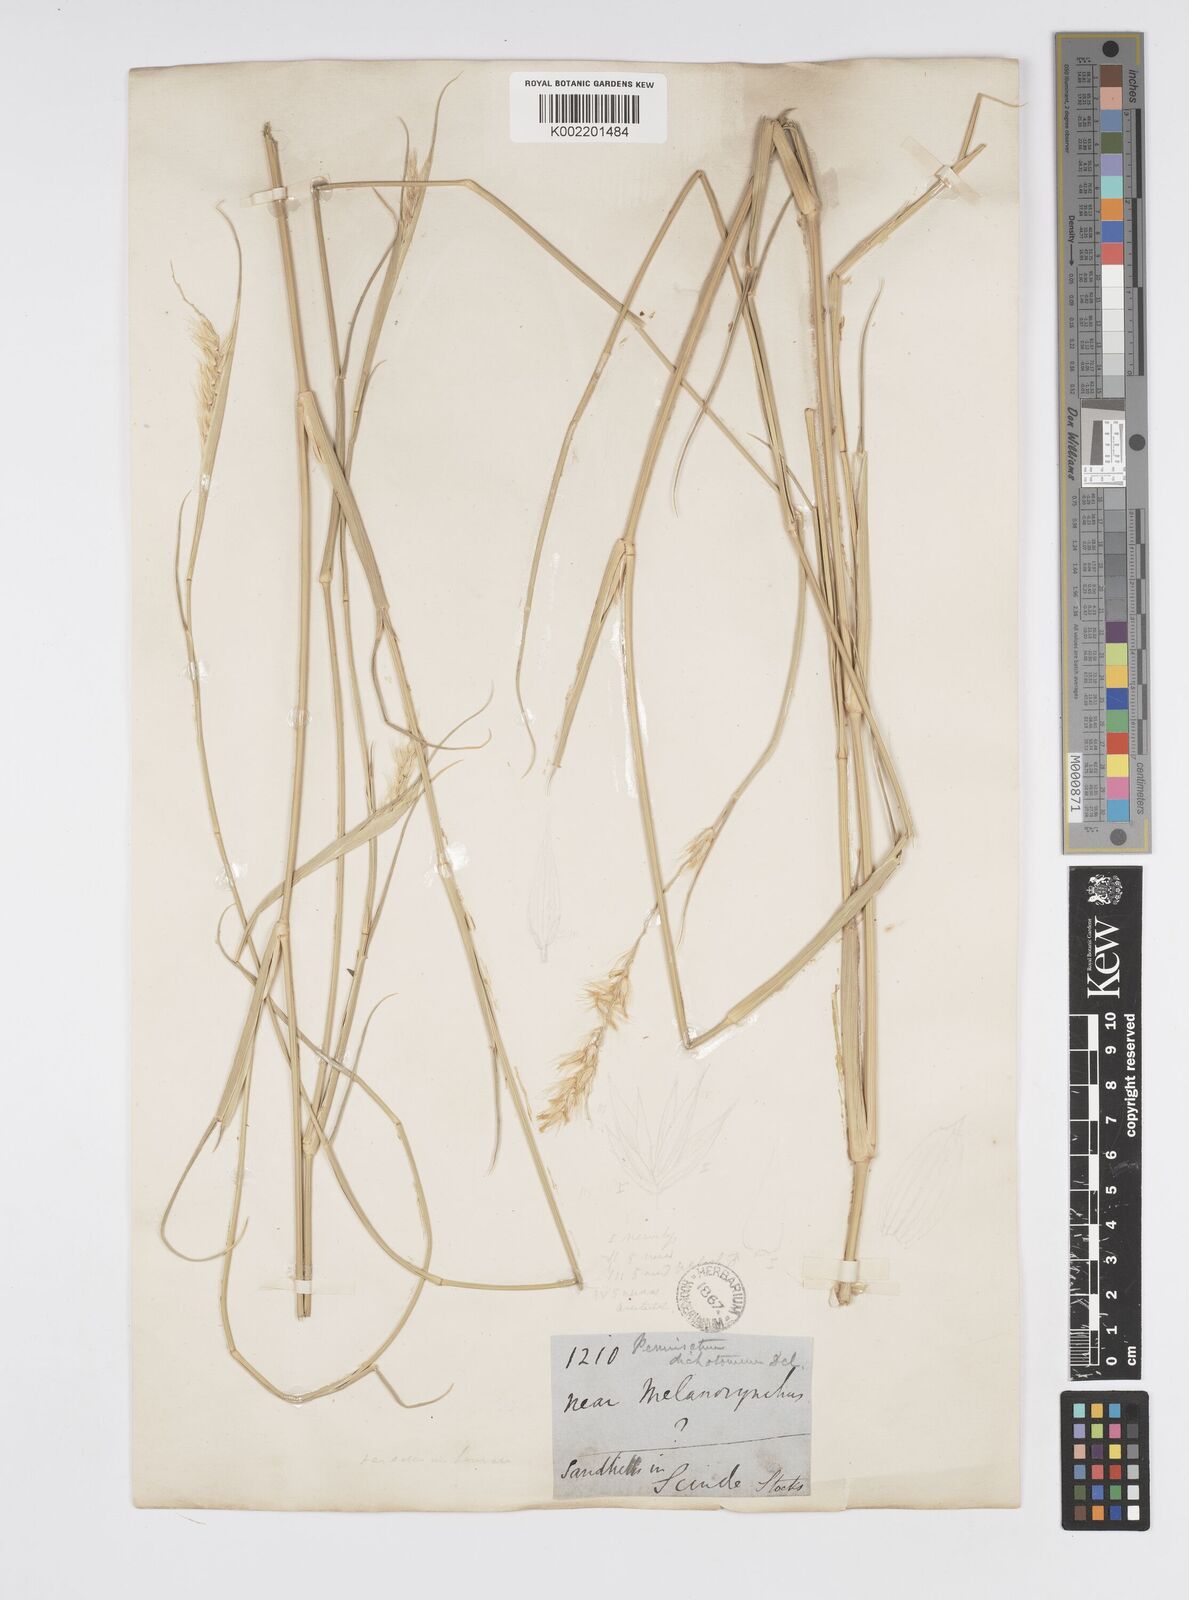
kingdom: Plantae
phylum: Tracheophyta
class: Liliopsida
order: Poales
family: Poaceae
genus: Cenchrus
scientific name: Cenchrus divisus
